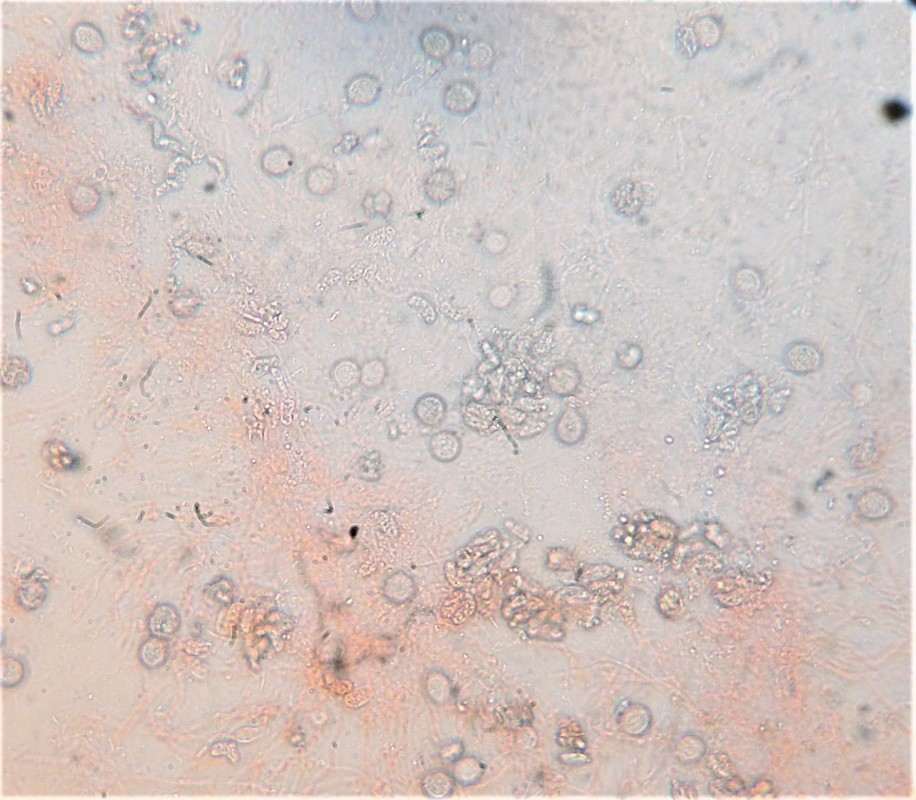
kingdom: Fungi
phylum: Basidiomycota
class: Agaricomycetes
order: Sebacinales
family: Sebacinaceae
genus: Sebacina
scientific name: Sebacina grisea
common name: blågrå bævrehinde
